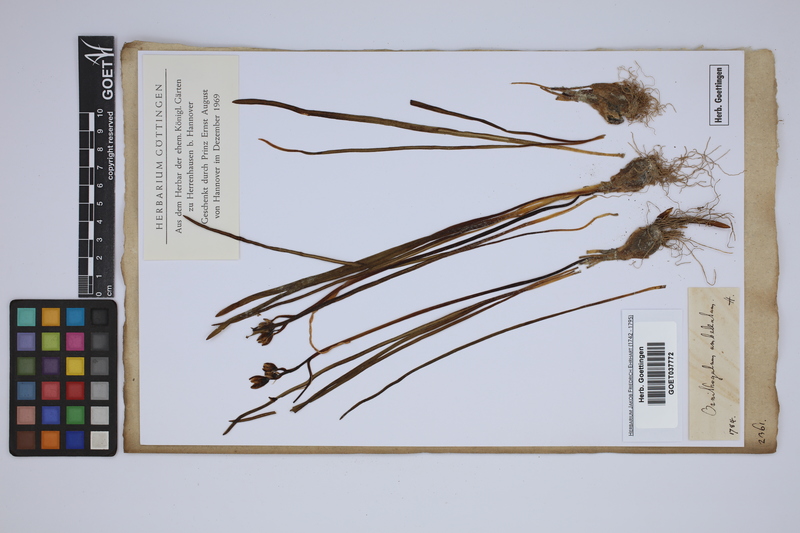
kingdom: Plantae
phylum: Tracheophyta
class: Liliopsida
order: Asparagales
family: Asparagaceae
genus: Ornithogalum
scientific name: Ornithogalum umbellatum
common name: Garden star-of-bethlehem
